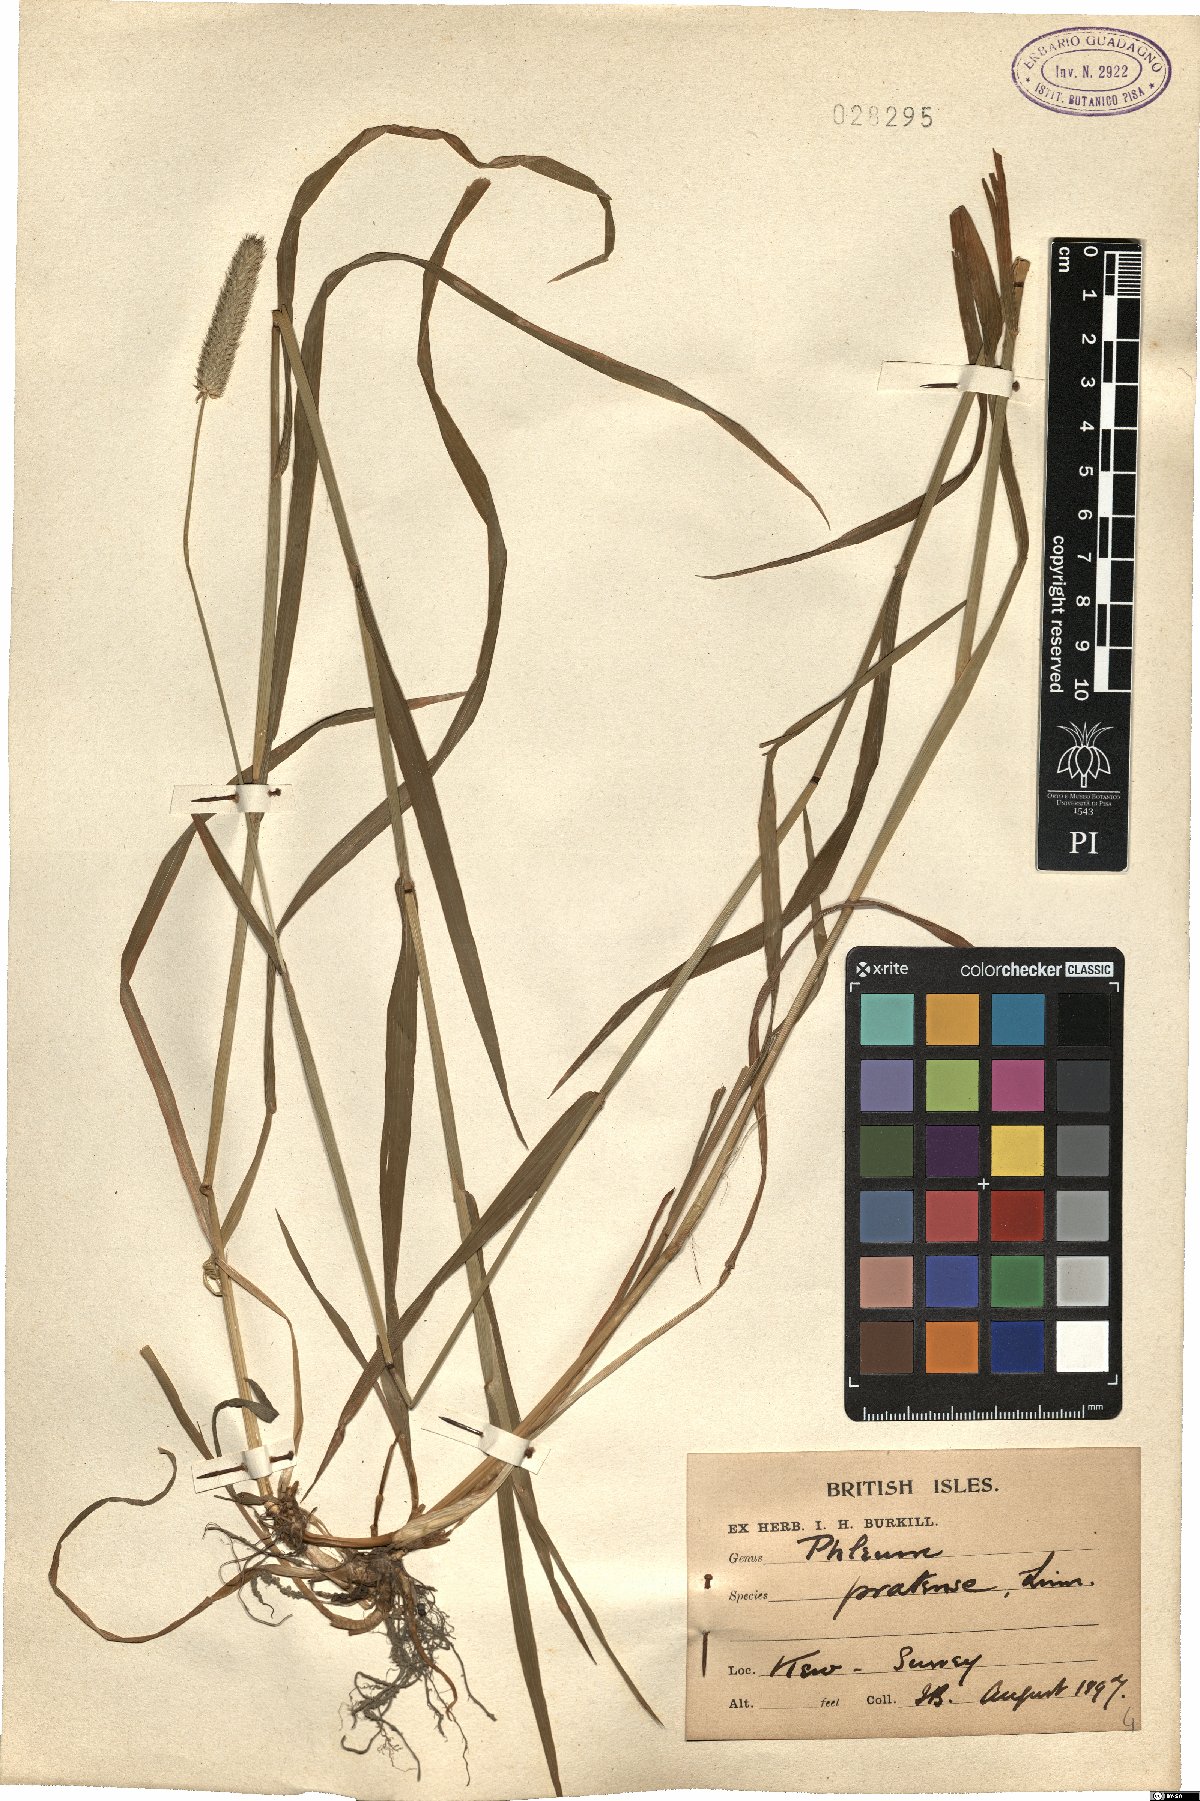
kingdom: Plantae
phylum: Tracheophyta
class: Liliopsida
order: Poales
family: Poaceae
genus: Phleum
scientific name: Phleum pratense
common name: Timothy grass
